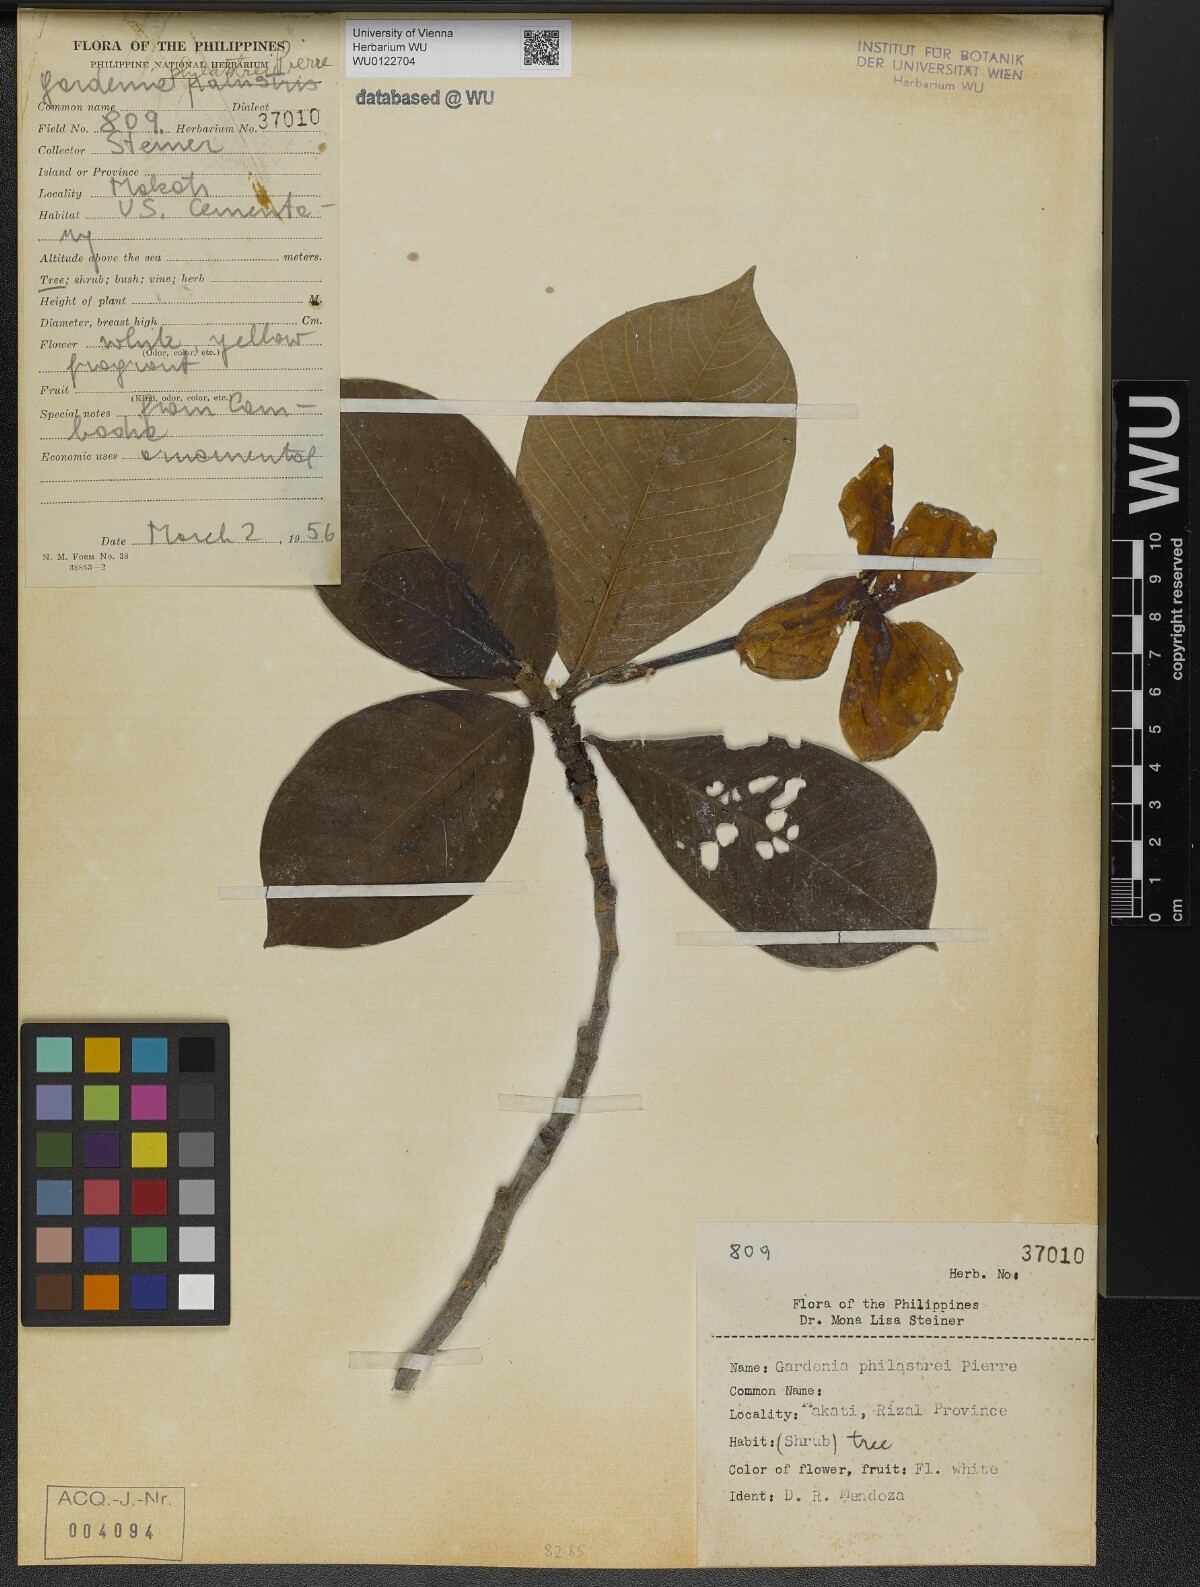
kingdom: Plantae
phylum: Tracheophyta
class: Magnoliopsida
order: Gentianales
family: Rubiaceae
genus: Gardenia
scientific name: Gardenia philastrei
